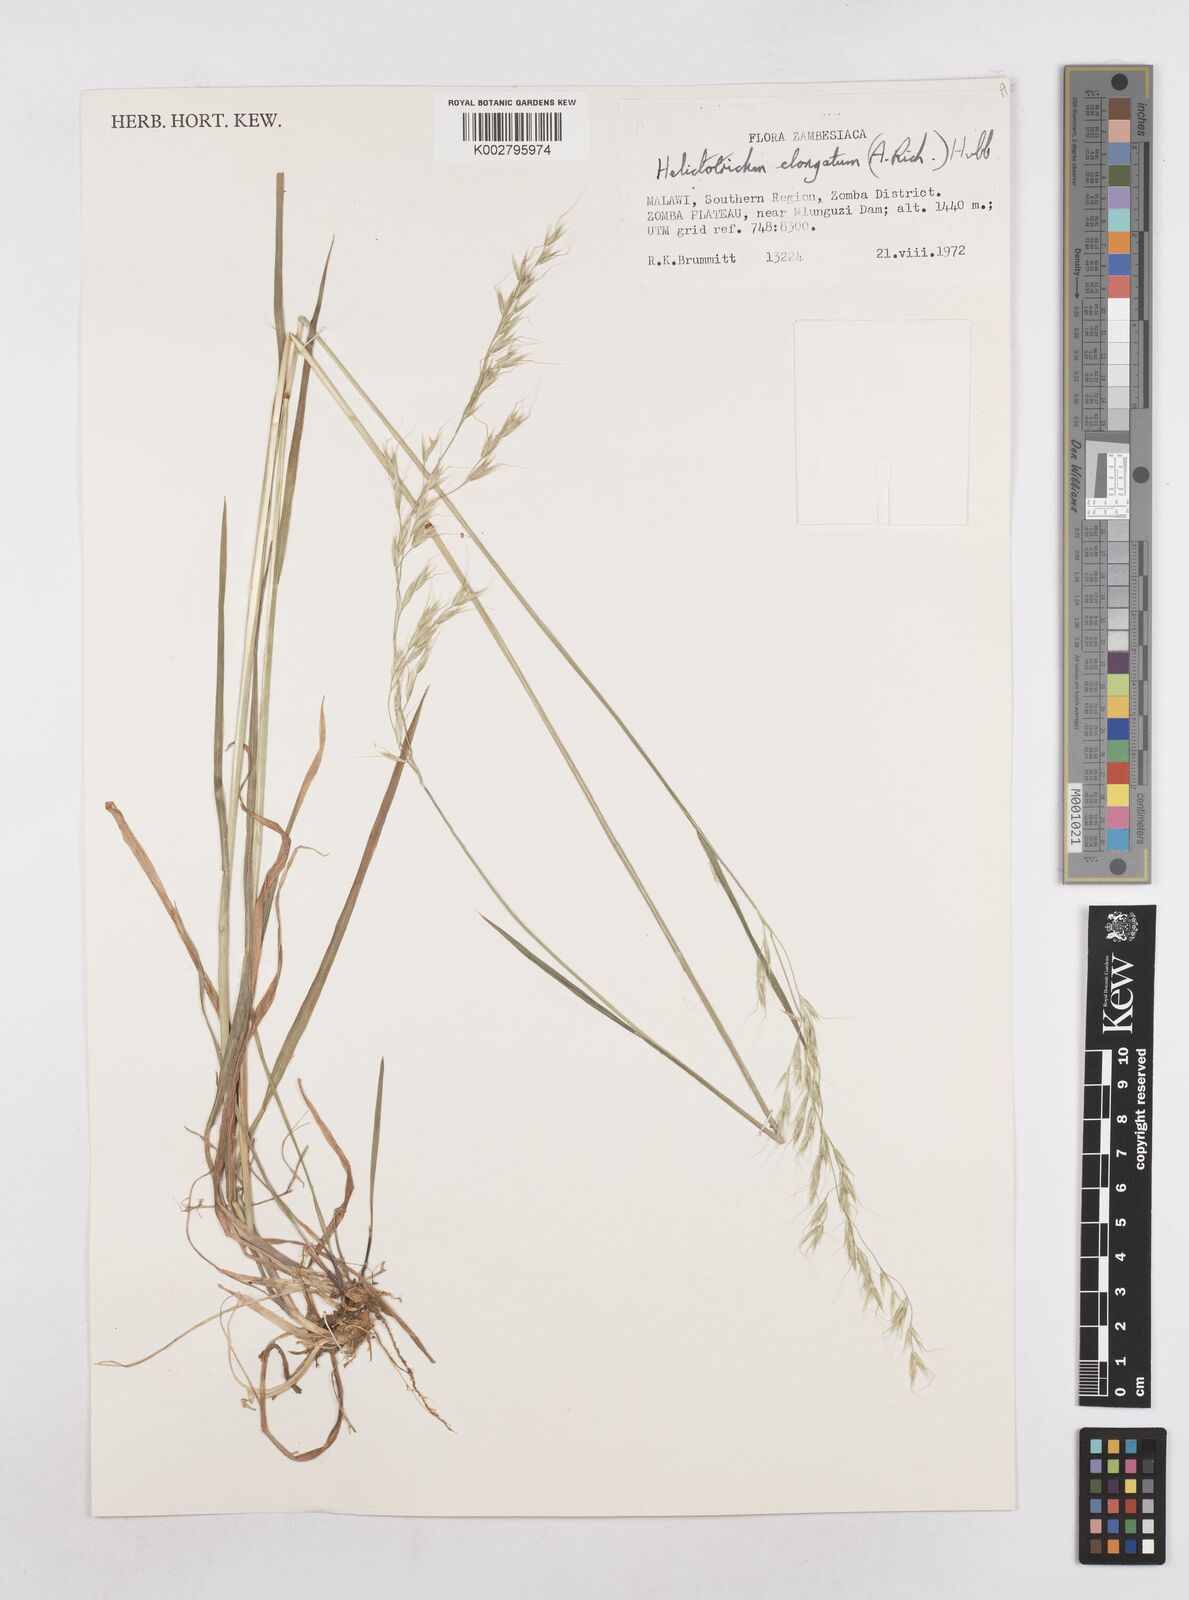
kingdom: Plantae
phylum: Tracheophyta
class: Liliopsida
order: Poales
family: Poaceae
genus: Trisetopsis
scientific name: Trisetopsis elongata
